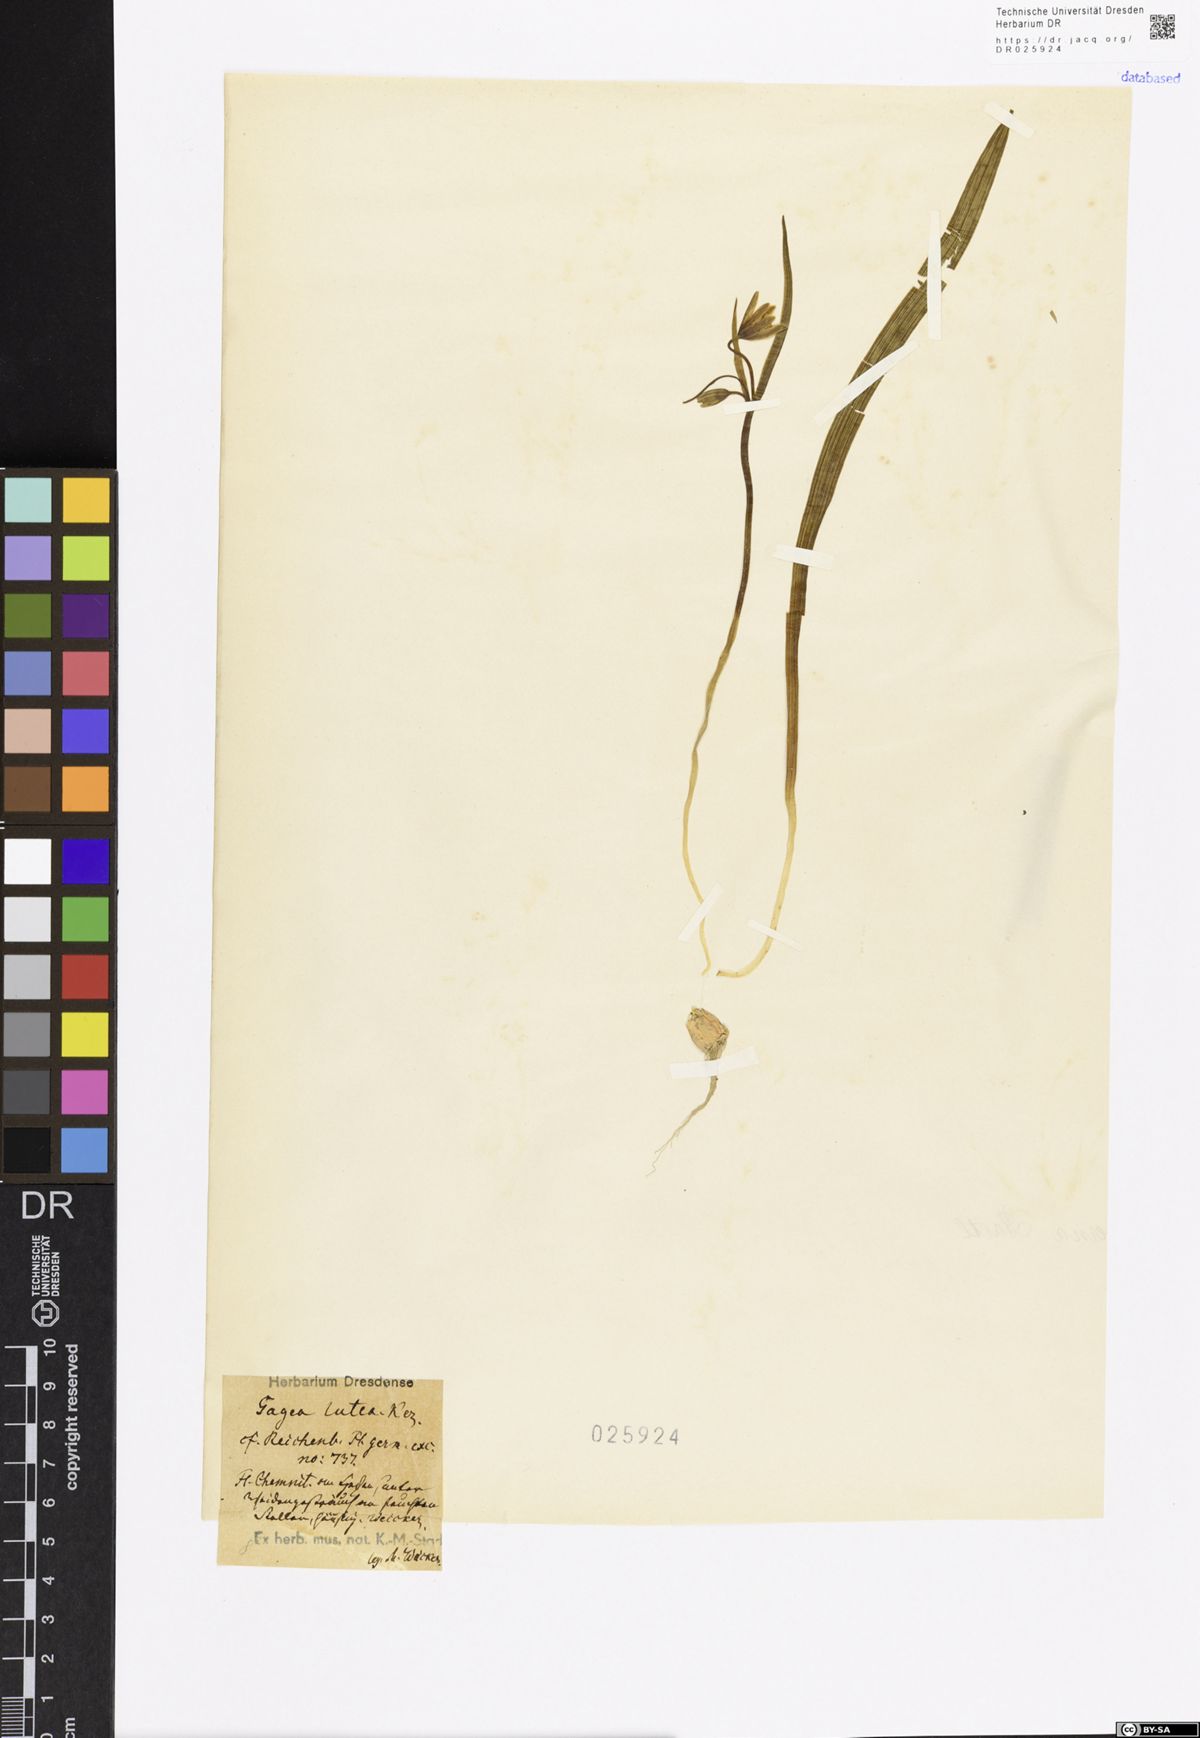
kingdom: Plantae
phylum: Tracheophyta
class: Liliopsida
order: Liliales
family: Liliaceae
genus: Gagea
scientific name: Gagea lutea
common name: Yellow star-of-bethlehem
